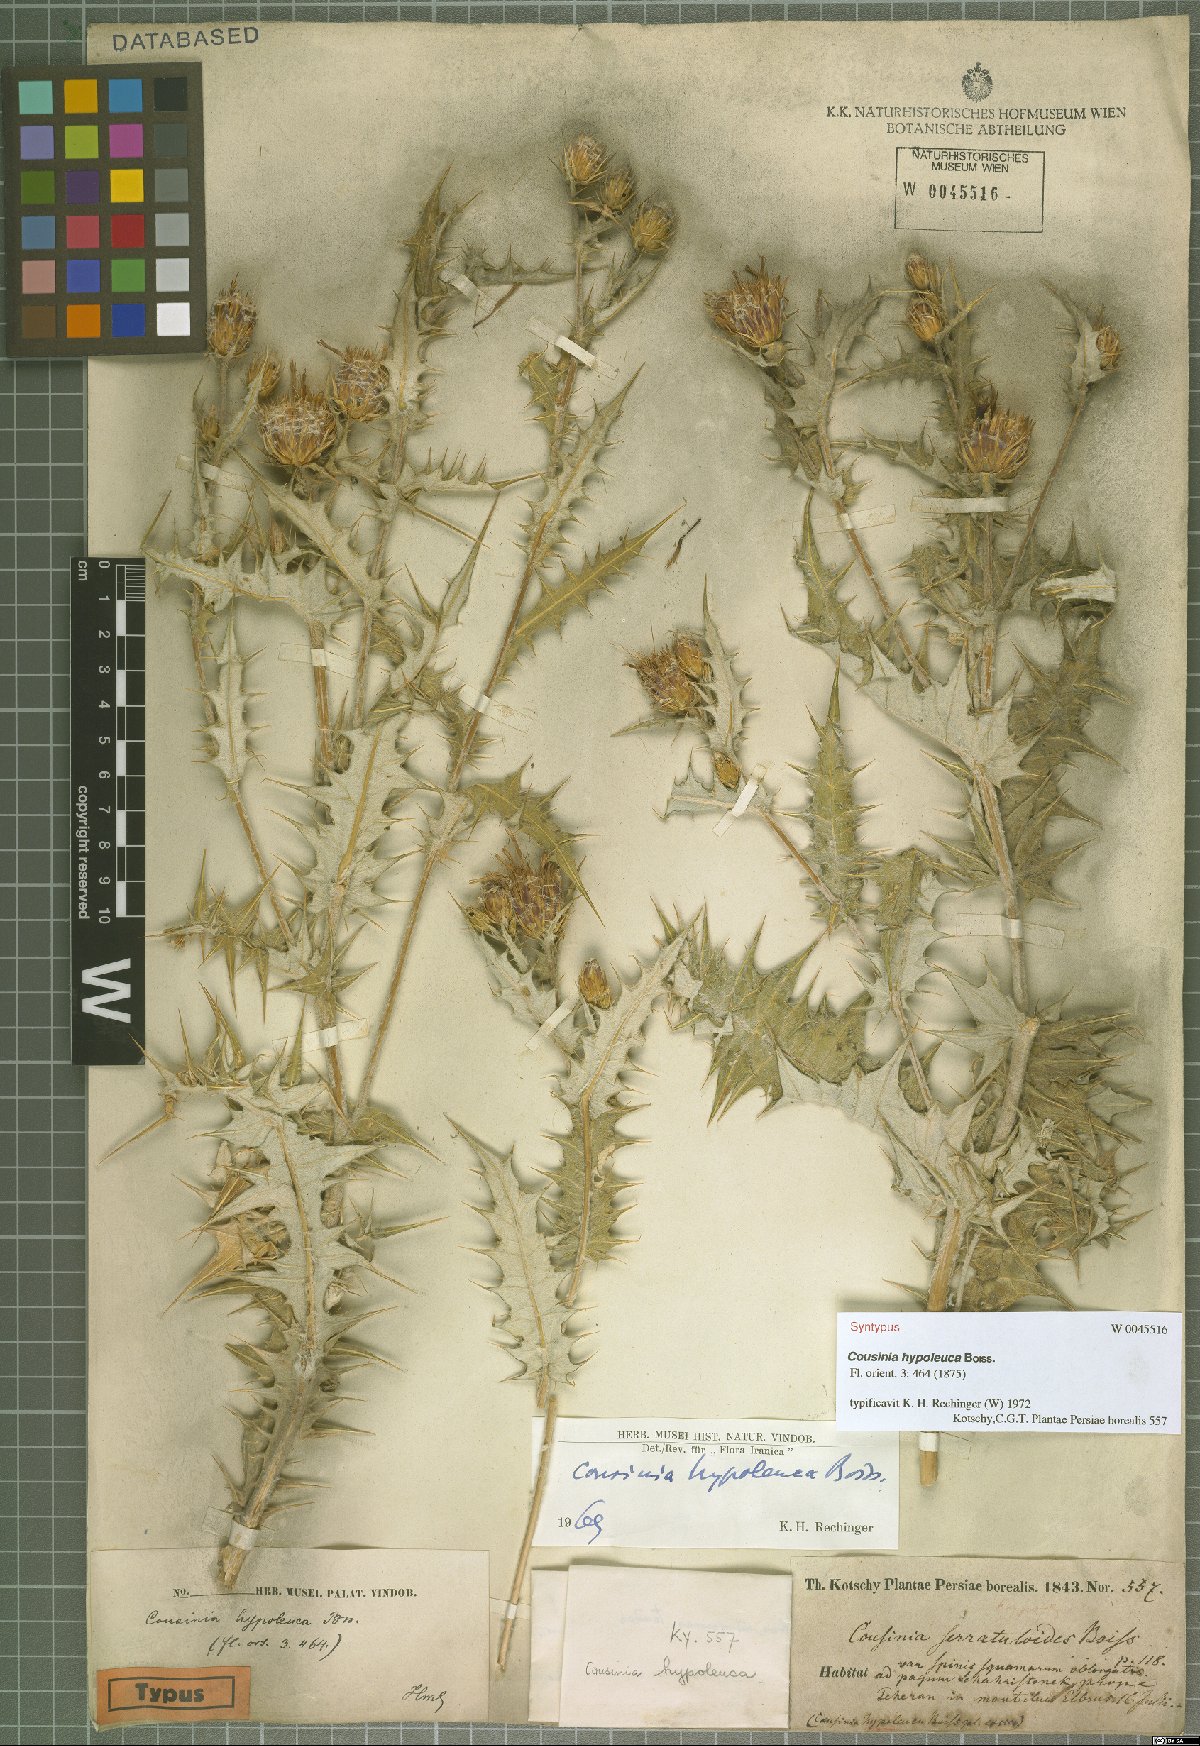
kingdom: Plantae
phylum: Tracheophyta
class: Magnoliopsida
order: Asterales
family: Asteraceae
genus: Cousinia
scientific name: Cousinia hypoleuca
